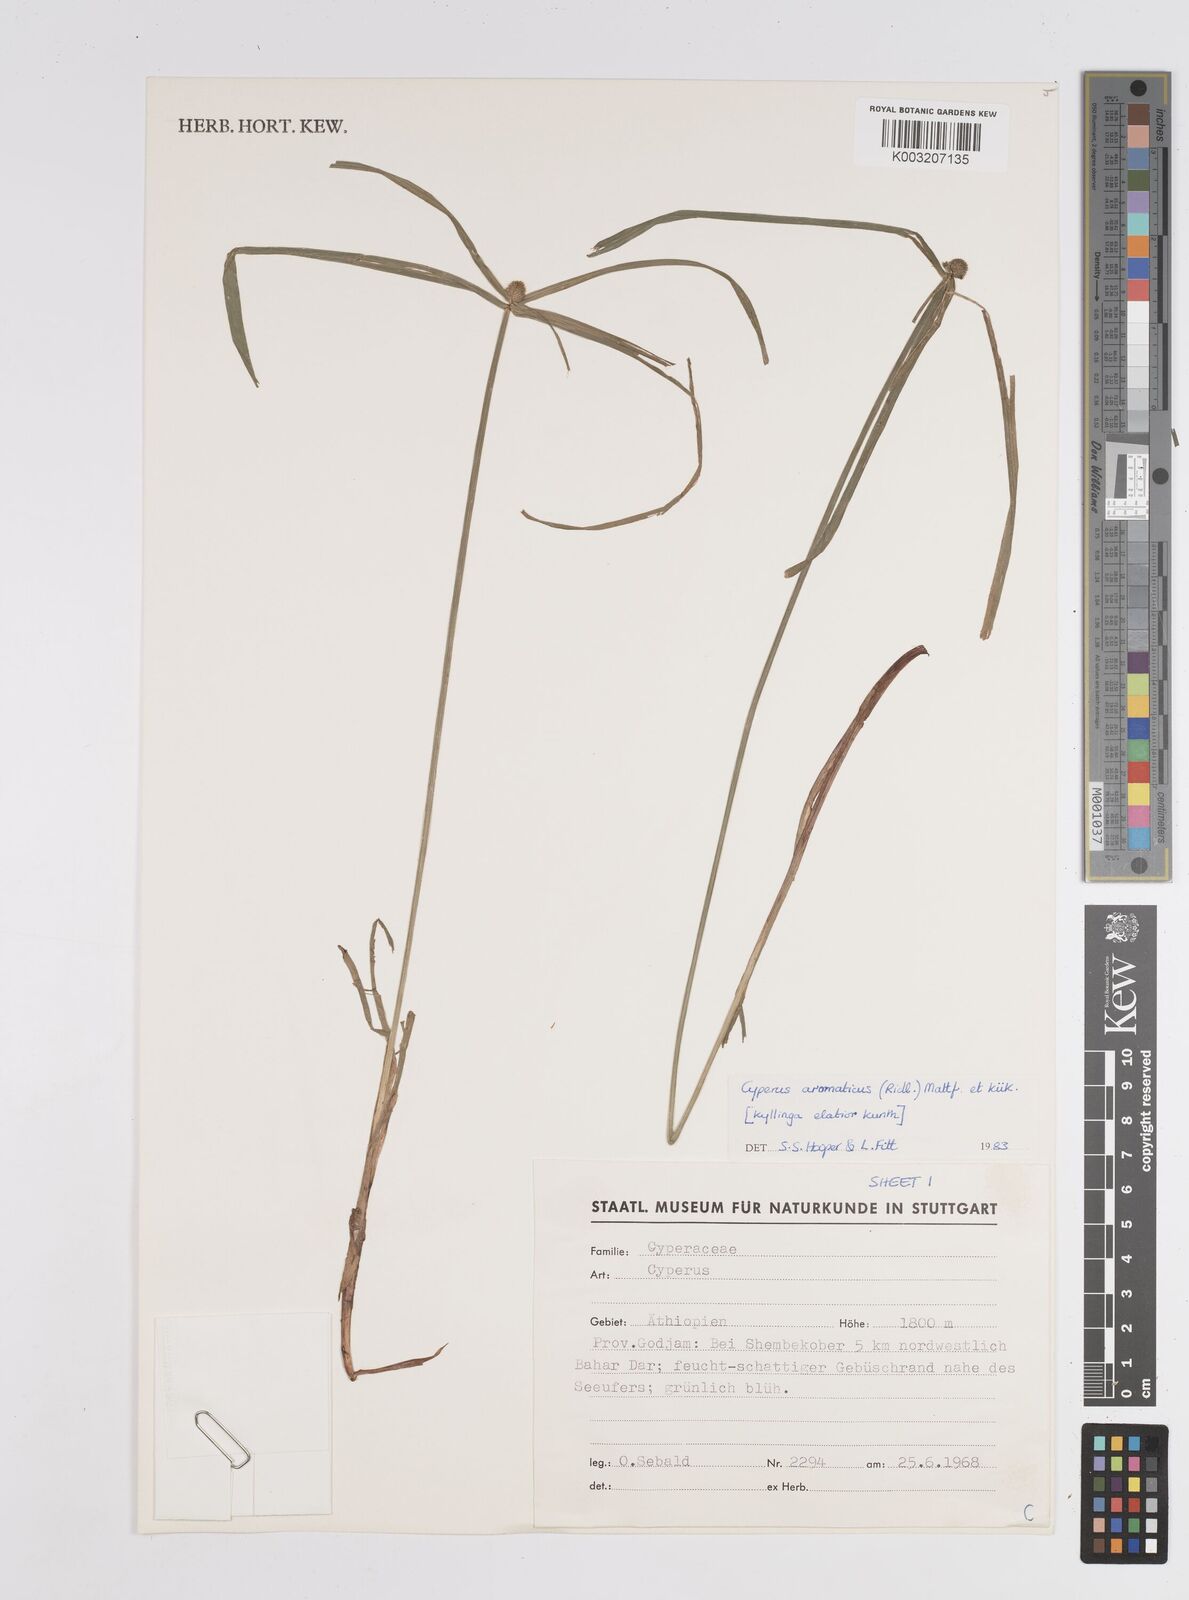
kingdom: Plantae
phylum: Tracheophyta
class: Liliopsida
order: Poales
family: Cyperaceae
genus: Cyperus
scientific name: Cyperus
